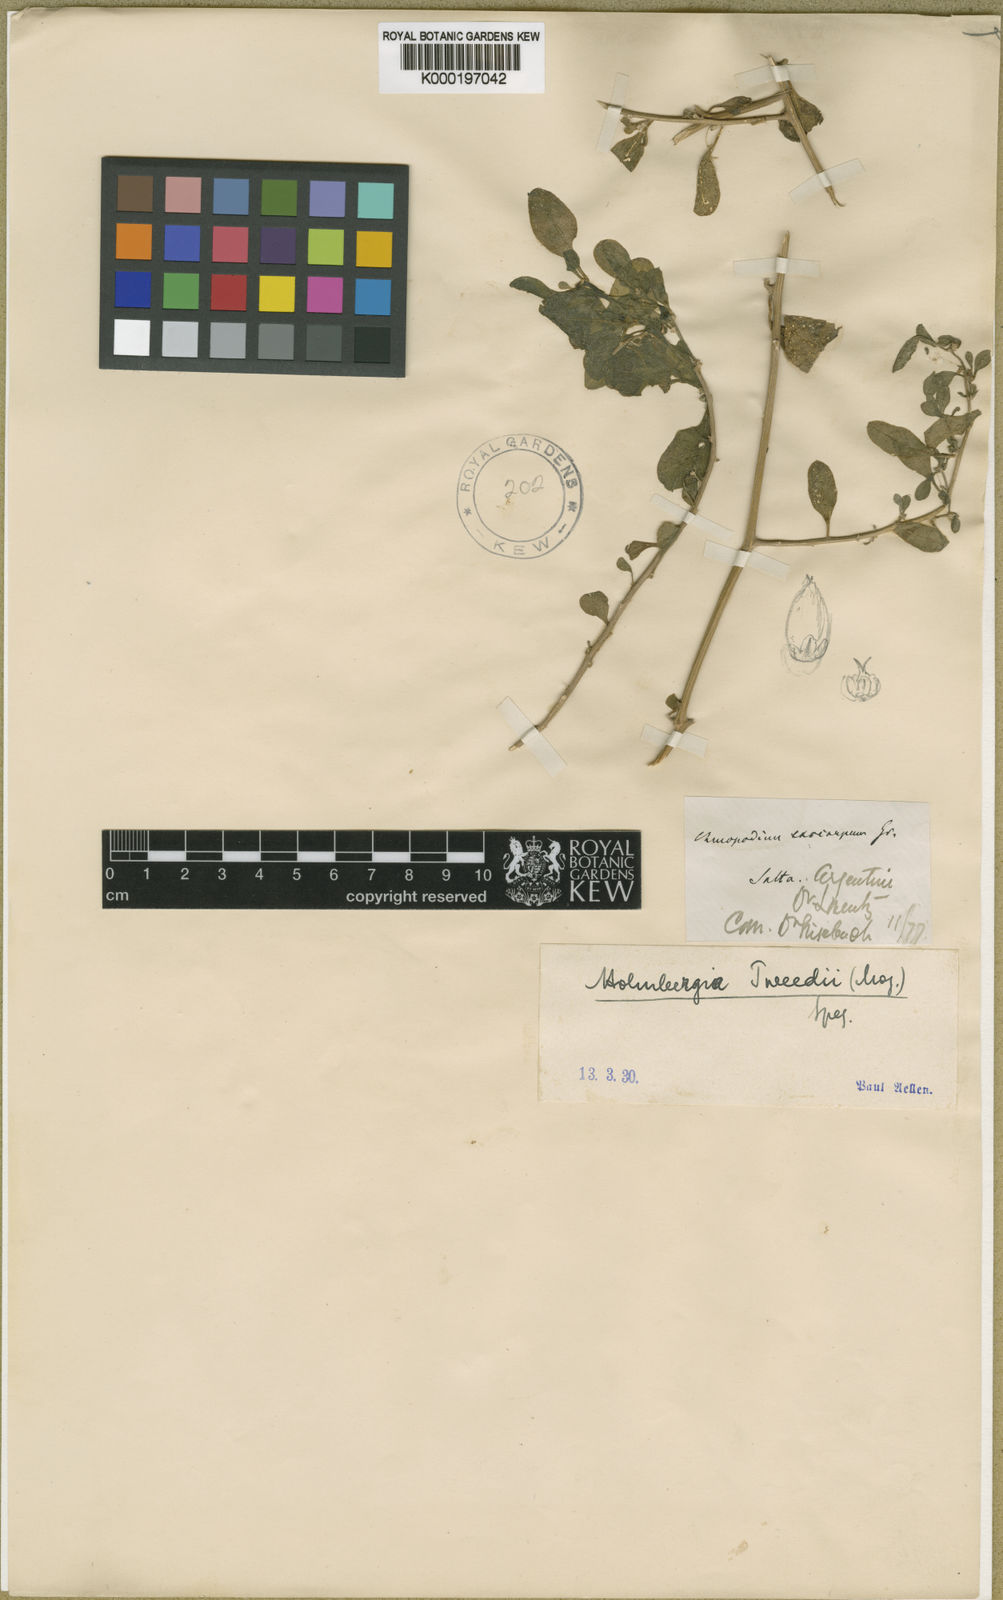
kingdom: Plantae
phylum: Tracheophyta
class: Magnoliopsida
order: Caryophyllales
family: Amaranthaceae
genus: Holmbergia
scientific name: Holmbergia tweedii
